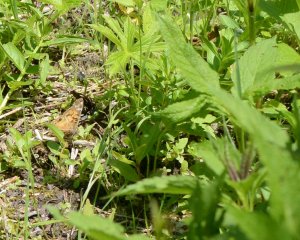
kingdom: Animalia
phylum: Arthropoda
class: Insecta
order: Lepidoptera
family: Nymphalidae
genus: Vanessa
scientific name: Vanessa virginiensis
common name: American Lady
